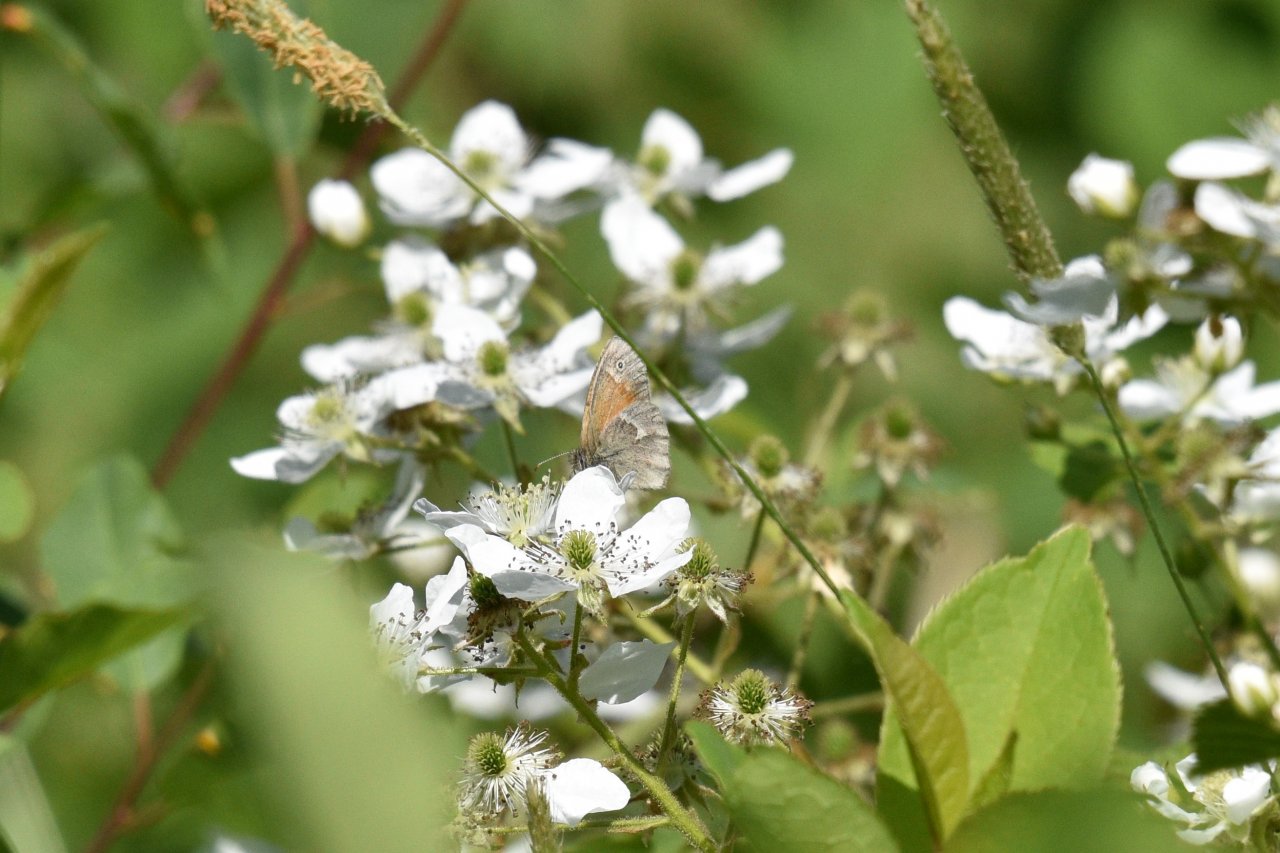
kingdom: Animalia
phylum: Arthropoda
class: Insecta
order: Lepidoptera
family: Nymphalidae
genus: Coenonympha
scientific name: Coenonympha tullia
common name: Large Heath
